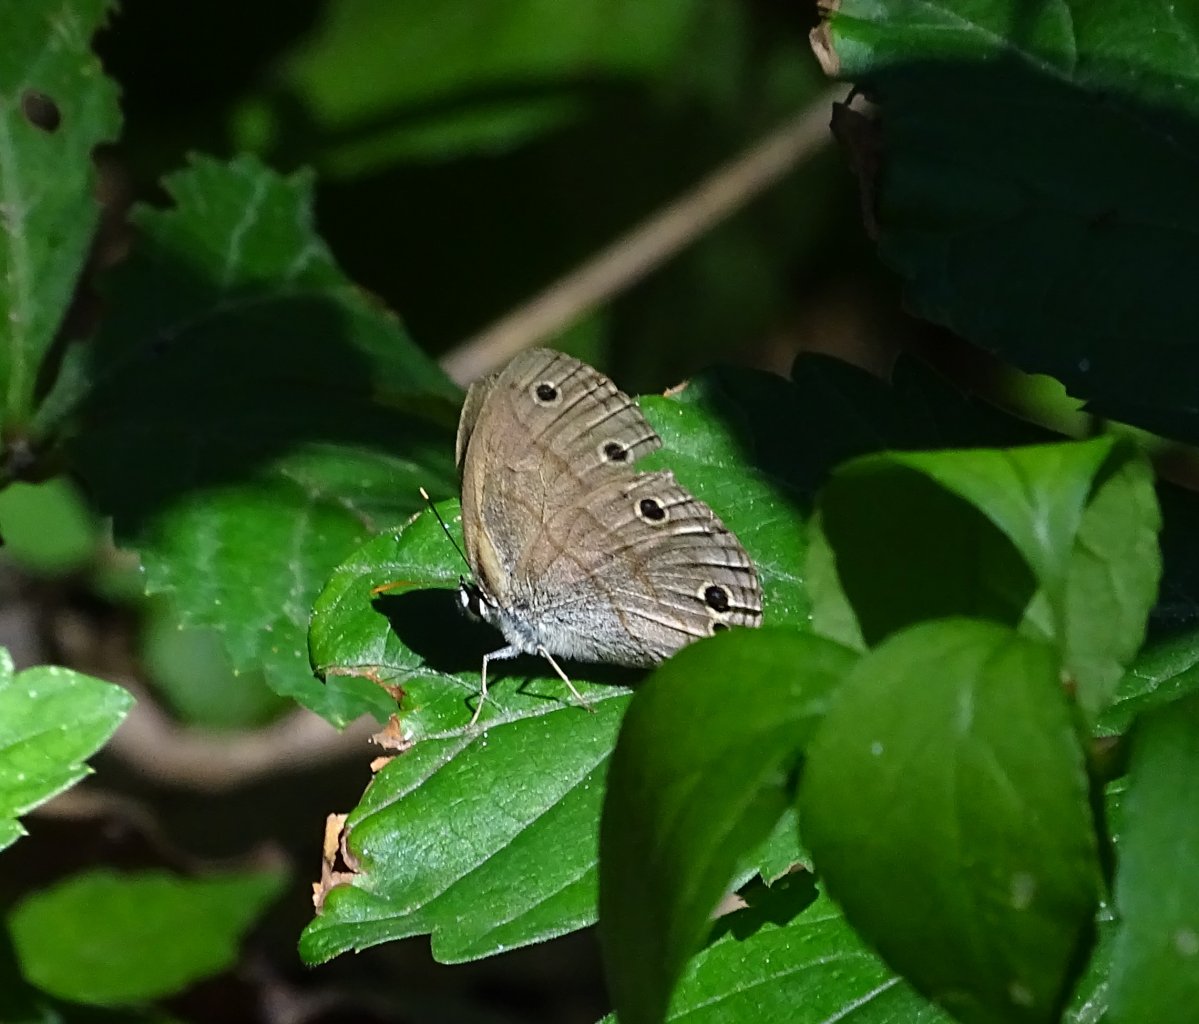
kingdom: Animalia
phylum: Arthropoda
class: Insecta
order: Lepidoptera
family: Nymphalidae
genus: Euptychia
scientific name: Euptychia cymela
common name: Little Wood Satyr
